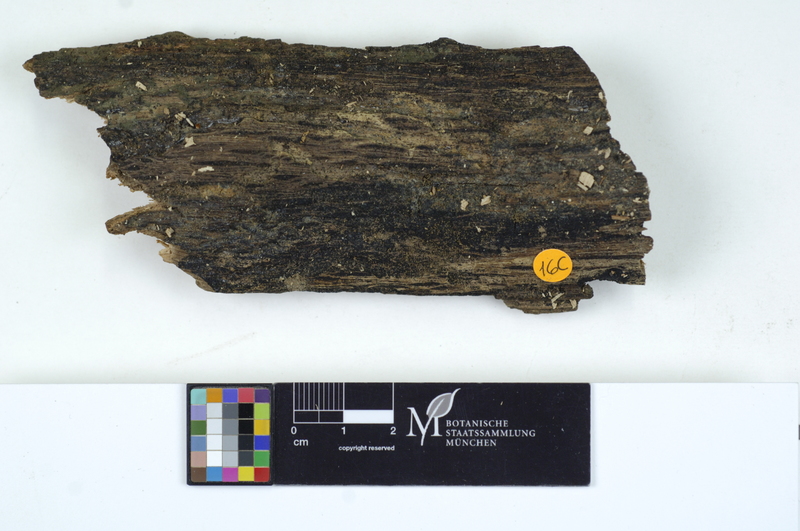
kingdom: Plantae
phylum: Tracheophyta
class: Magnoliopsida
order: Fagales
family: Fagaceae
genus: Quercus
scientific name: Quercus
